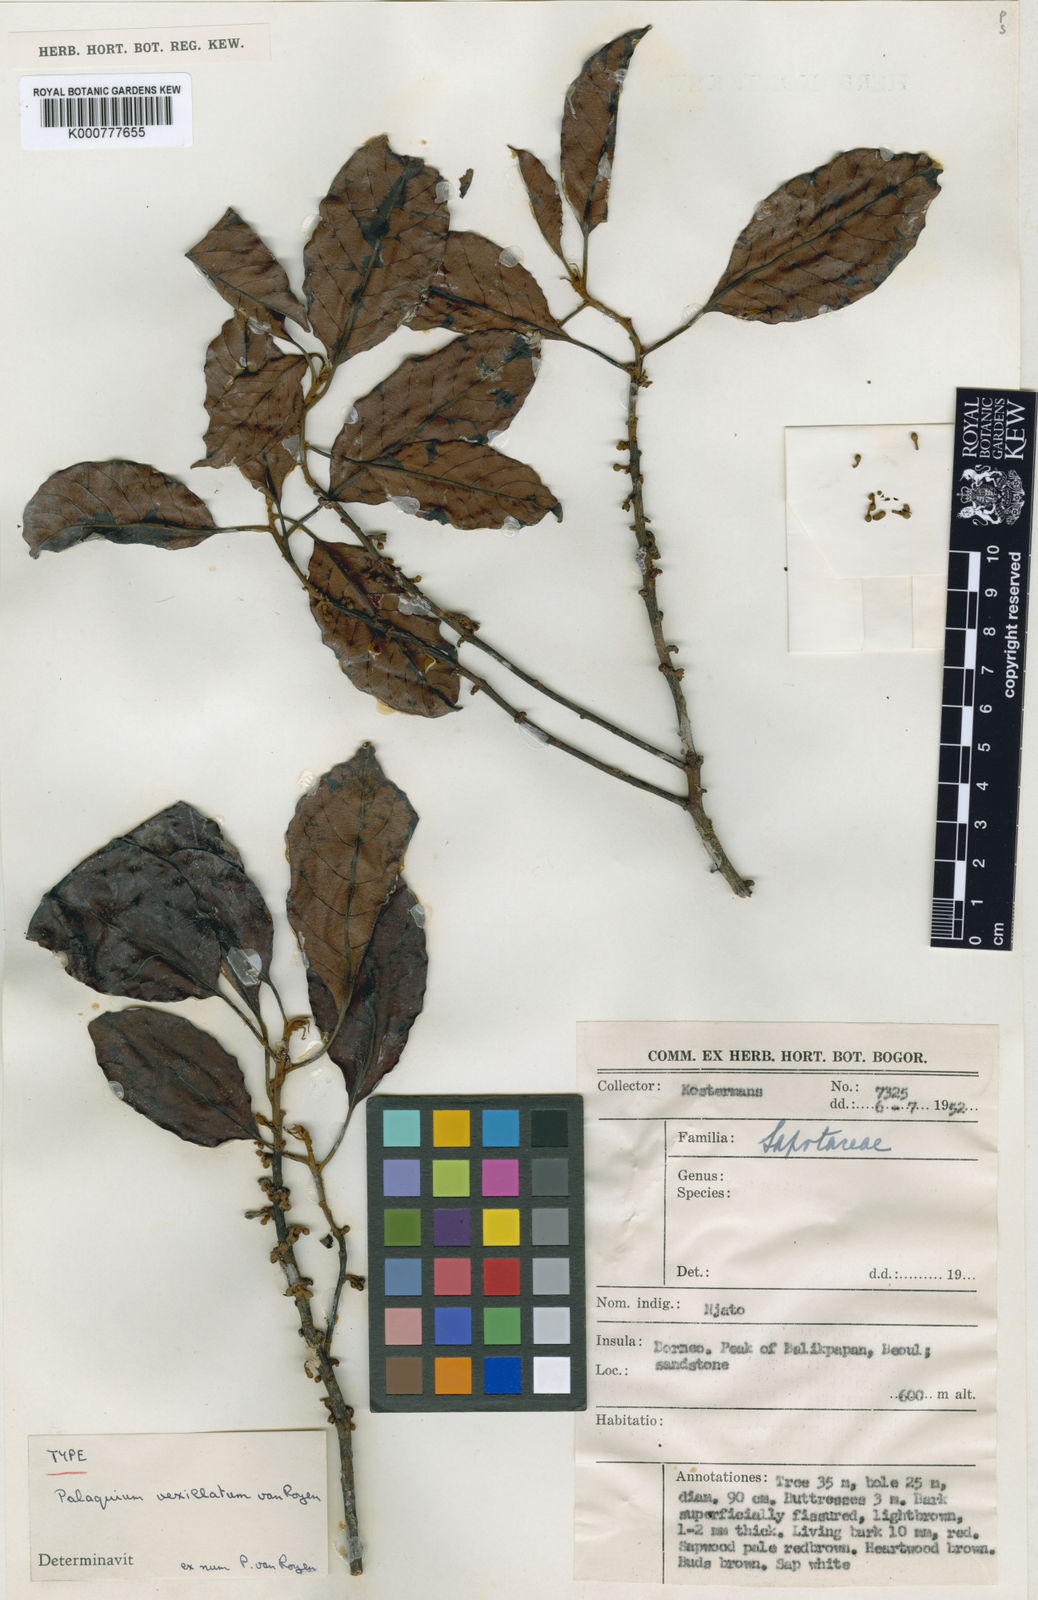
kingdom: Plantae
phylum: Tracheophyta
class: Magnoliopsida
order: Ericales
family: Sapotaceae
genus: Palaquium
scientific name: Palaquium vexillatum
